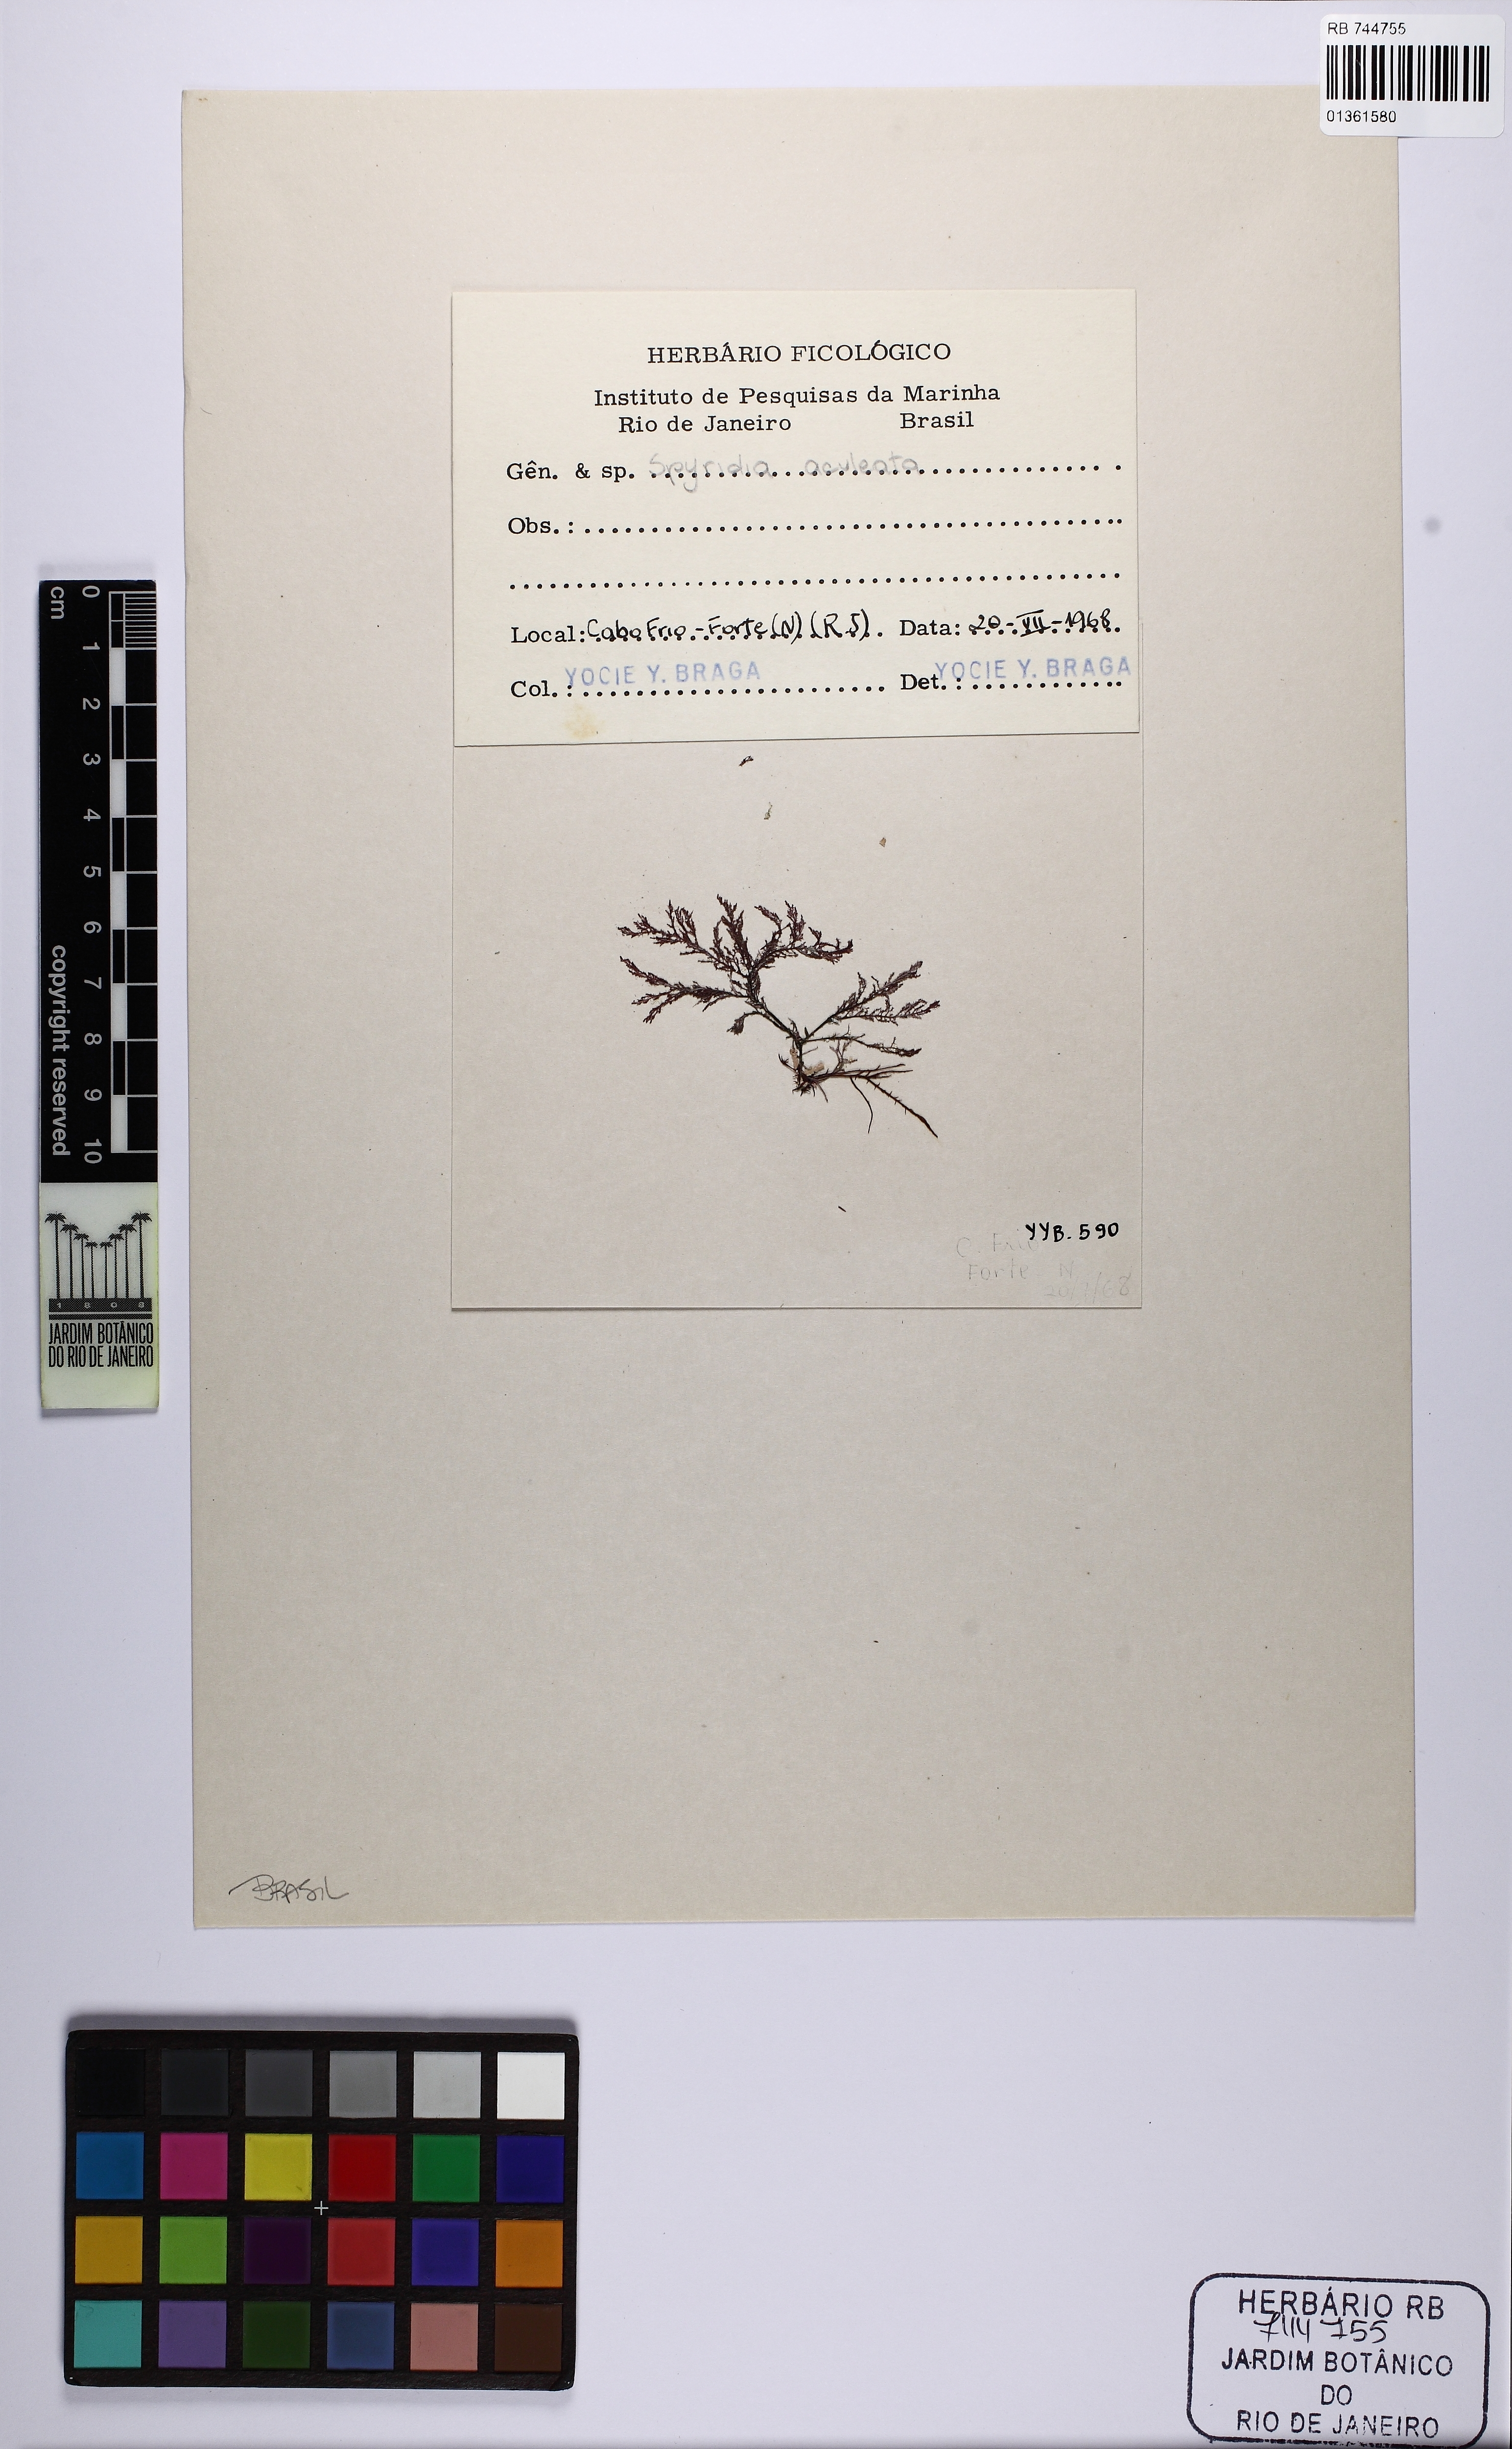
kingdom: Plantae
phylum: Rhodophyta
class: Florideophyceae
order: Ceramiales
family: Spyridiaceae
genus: Spyridia
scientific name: Spyridia hypnoides
